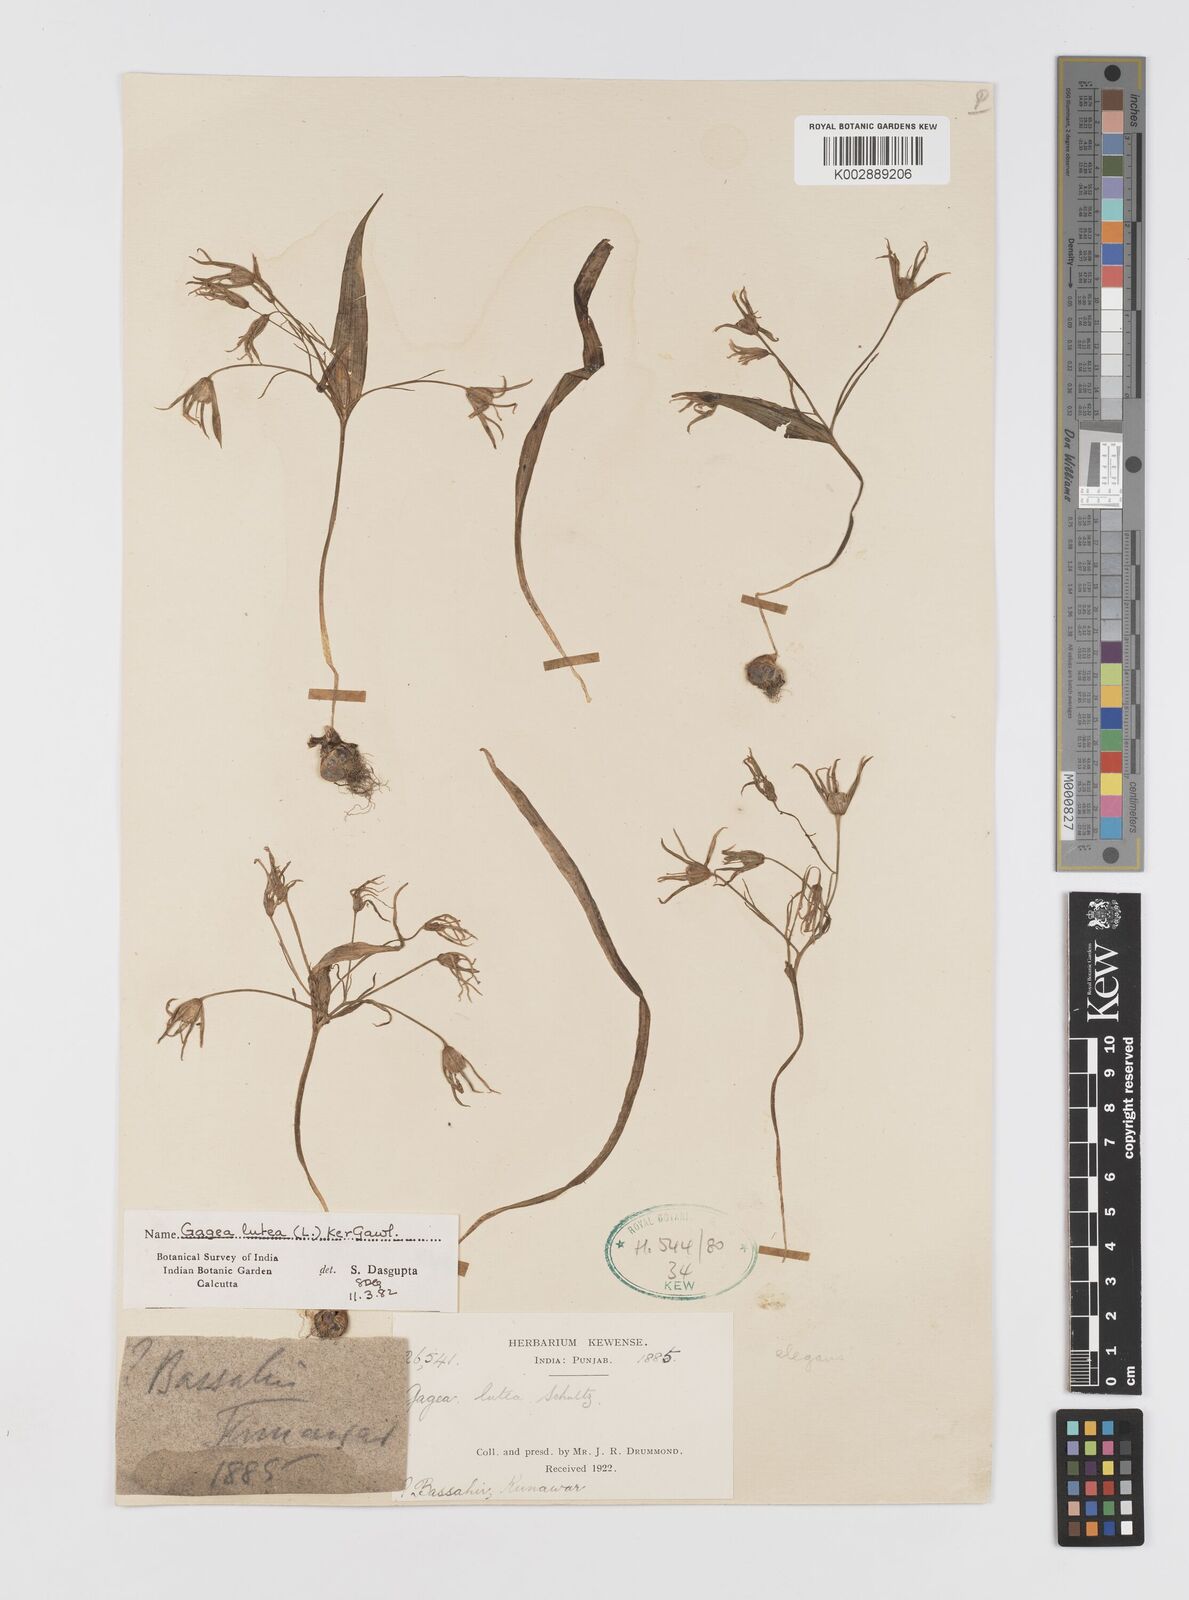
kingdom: Plantae
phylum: Tracheophyta
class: Liliopsida
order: Liliales
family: Liliaceae
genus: Gagea
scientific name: Gagea lutea
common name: Yellow star-of-bethlehem
